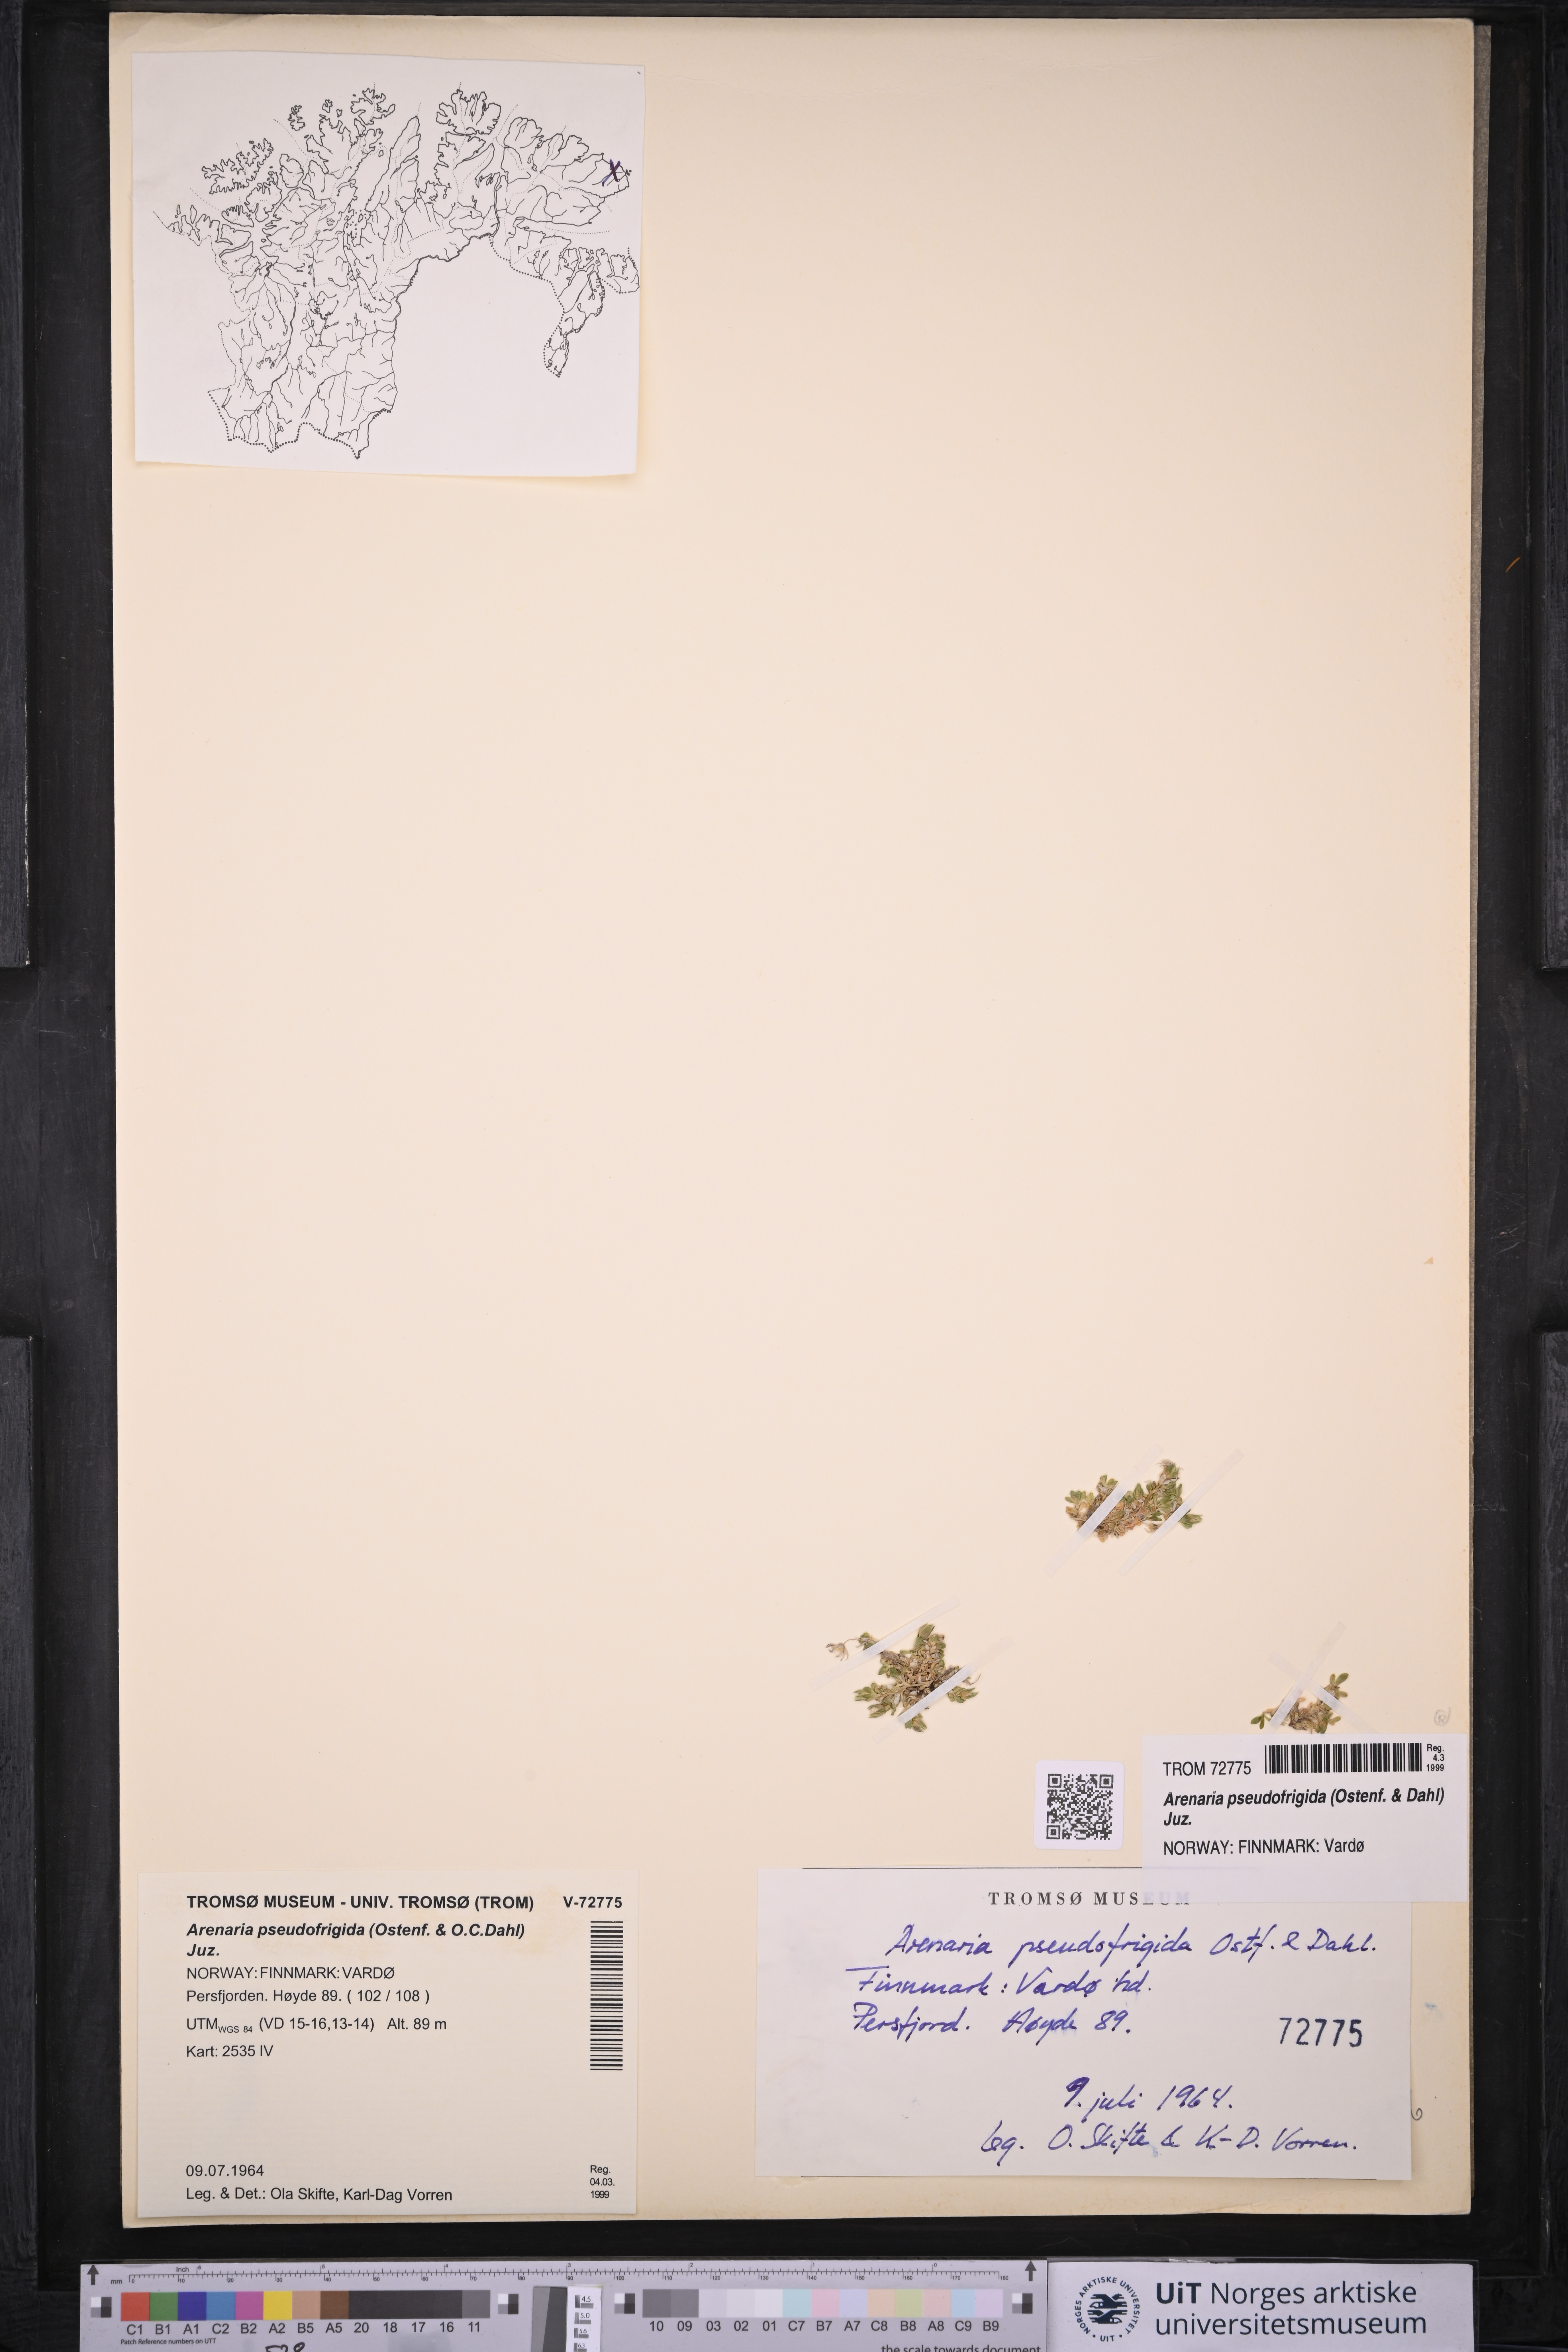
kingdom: Plantae
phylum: Tracheophyta
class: Magnoliopsida
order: Caryophyllales
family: Caryophyllaceae
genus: Arenaria
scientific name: Arenaria pseudofrigida
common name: Tundra sandwort
